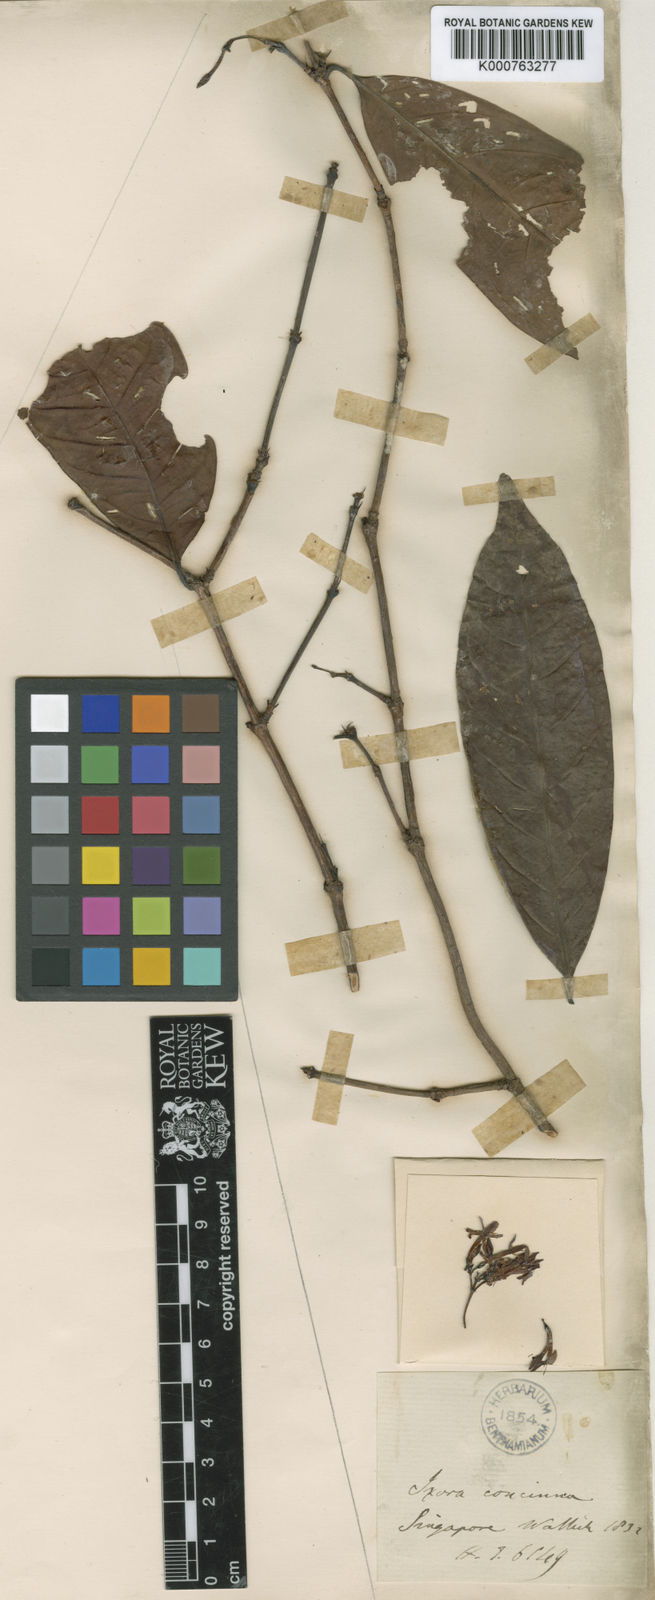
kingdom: Plantae
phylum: Tracheophyta
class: Magnoliopsida
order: Gentianales
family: Rubiaceae
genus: Ixora
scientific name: Ixora pendula
